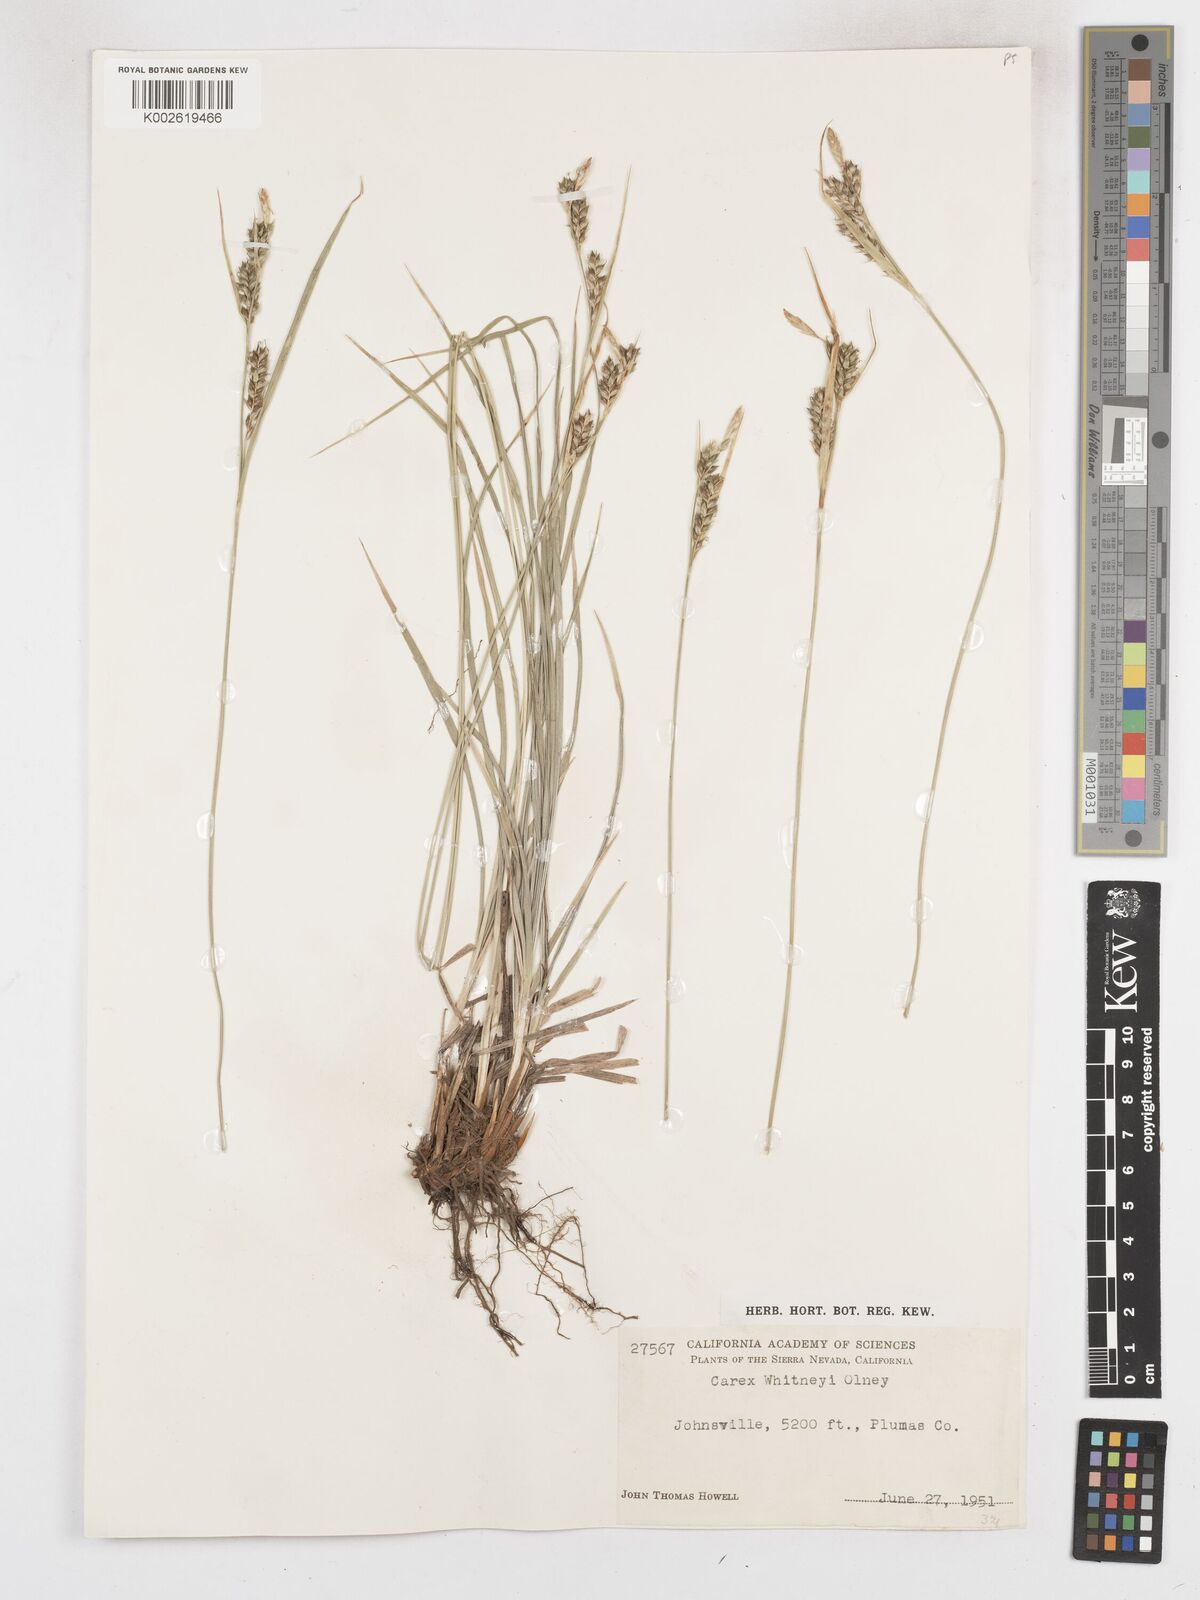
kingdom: Plantae
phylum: Tracheophyta
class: Liliopsida
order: Poales
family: Cyperaceae
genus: Carex
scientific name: Carex whitneyi
